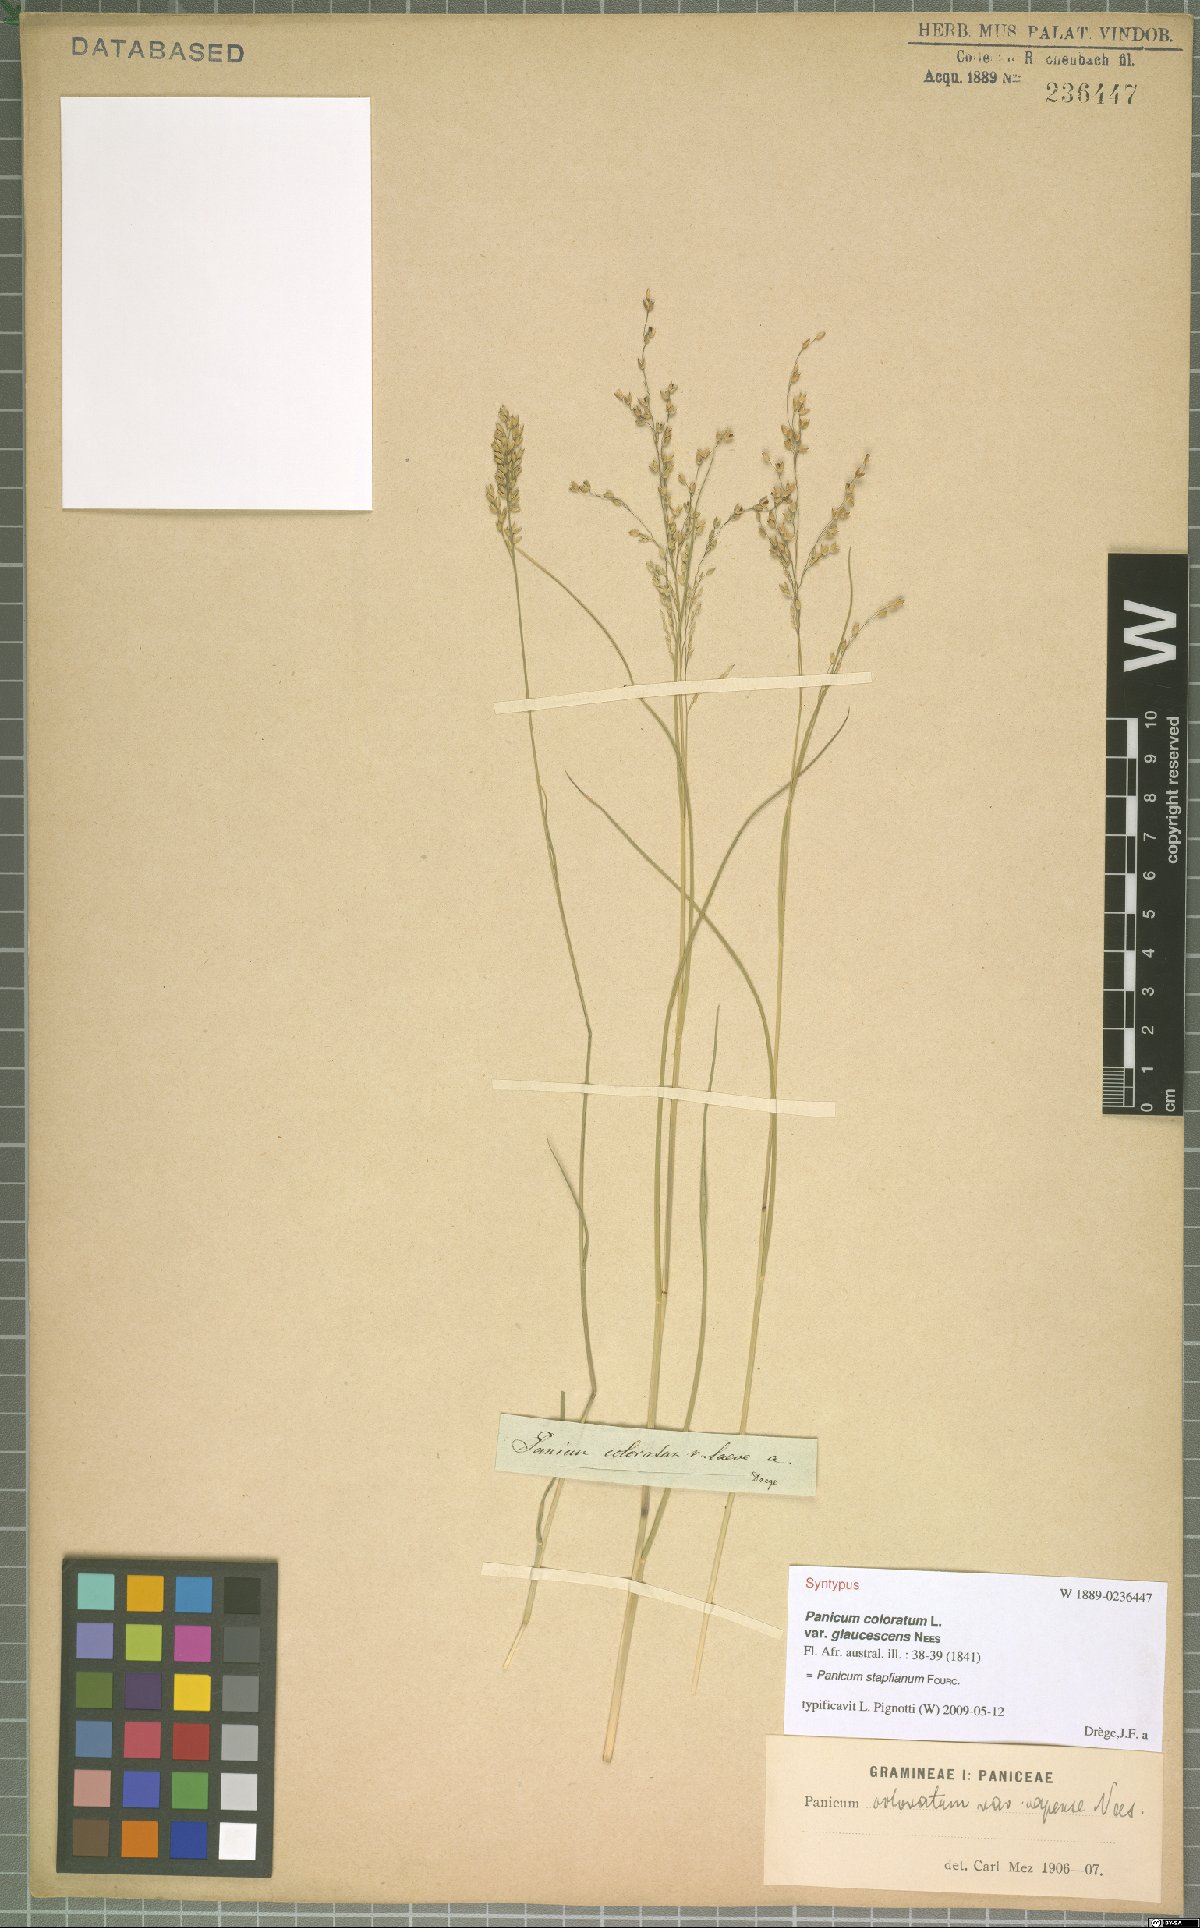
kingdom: Plantae
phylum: Tracheophyta
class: Liliopsida
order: Poales
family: Poaceae
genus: Panicum
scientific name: Panicum stapfianum
